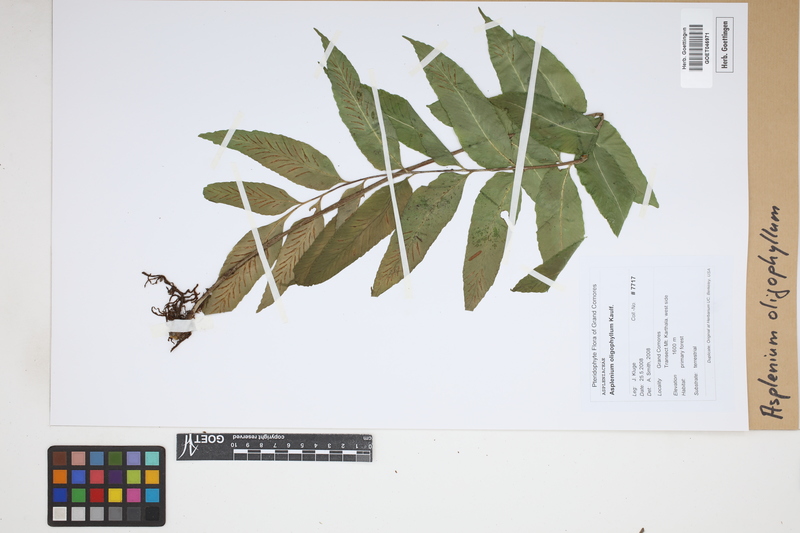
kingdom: Plantae
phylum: Tracheophyta
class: Polypodiopsida
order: Polypodiales
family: Aspleniaceae
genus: Asplenium
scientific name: Asplenium oligophyllum
